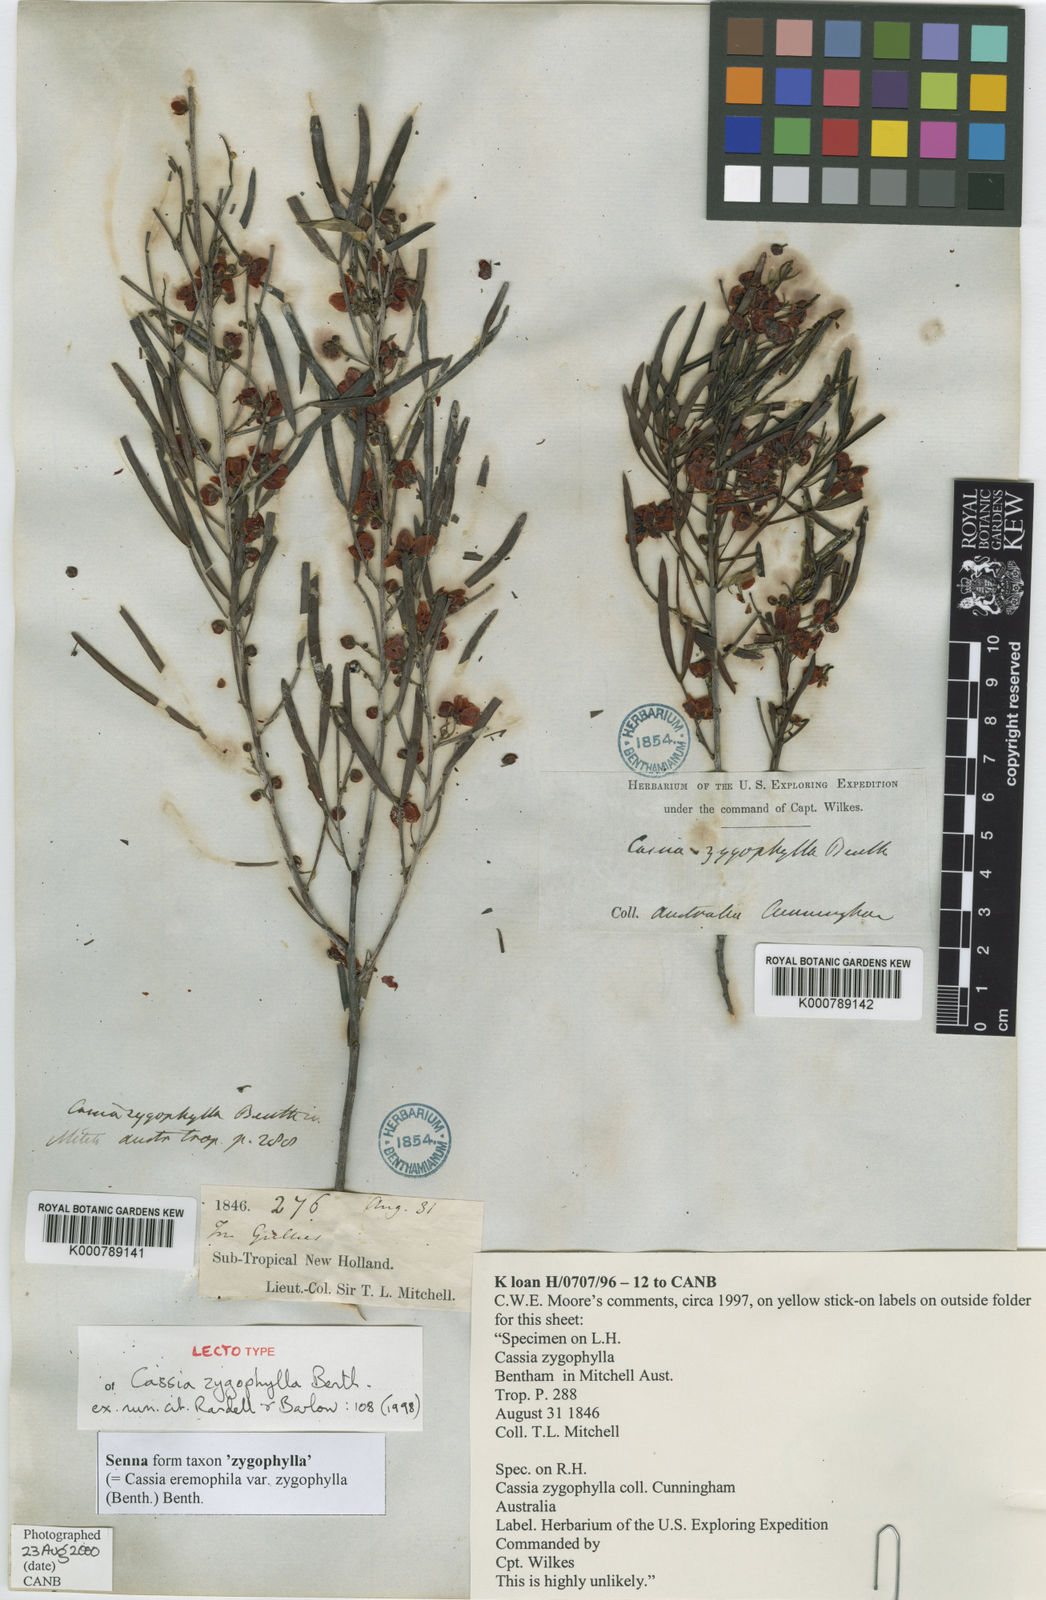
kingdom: Plantae
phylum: Tracheophyta
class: Magnoliopsida
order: Fabales
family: Fabaceae
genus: Senna
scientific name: Senna
